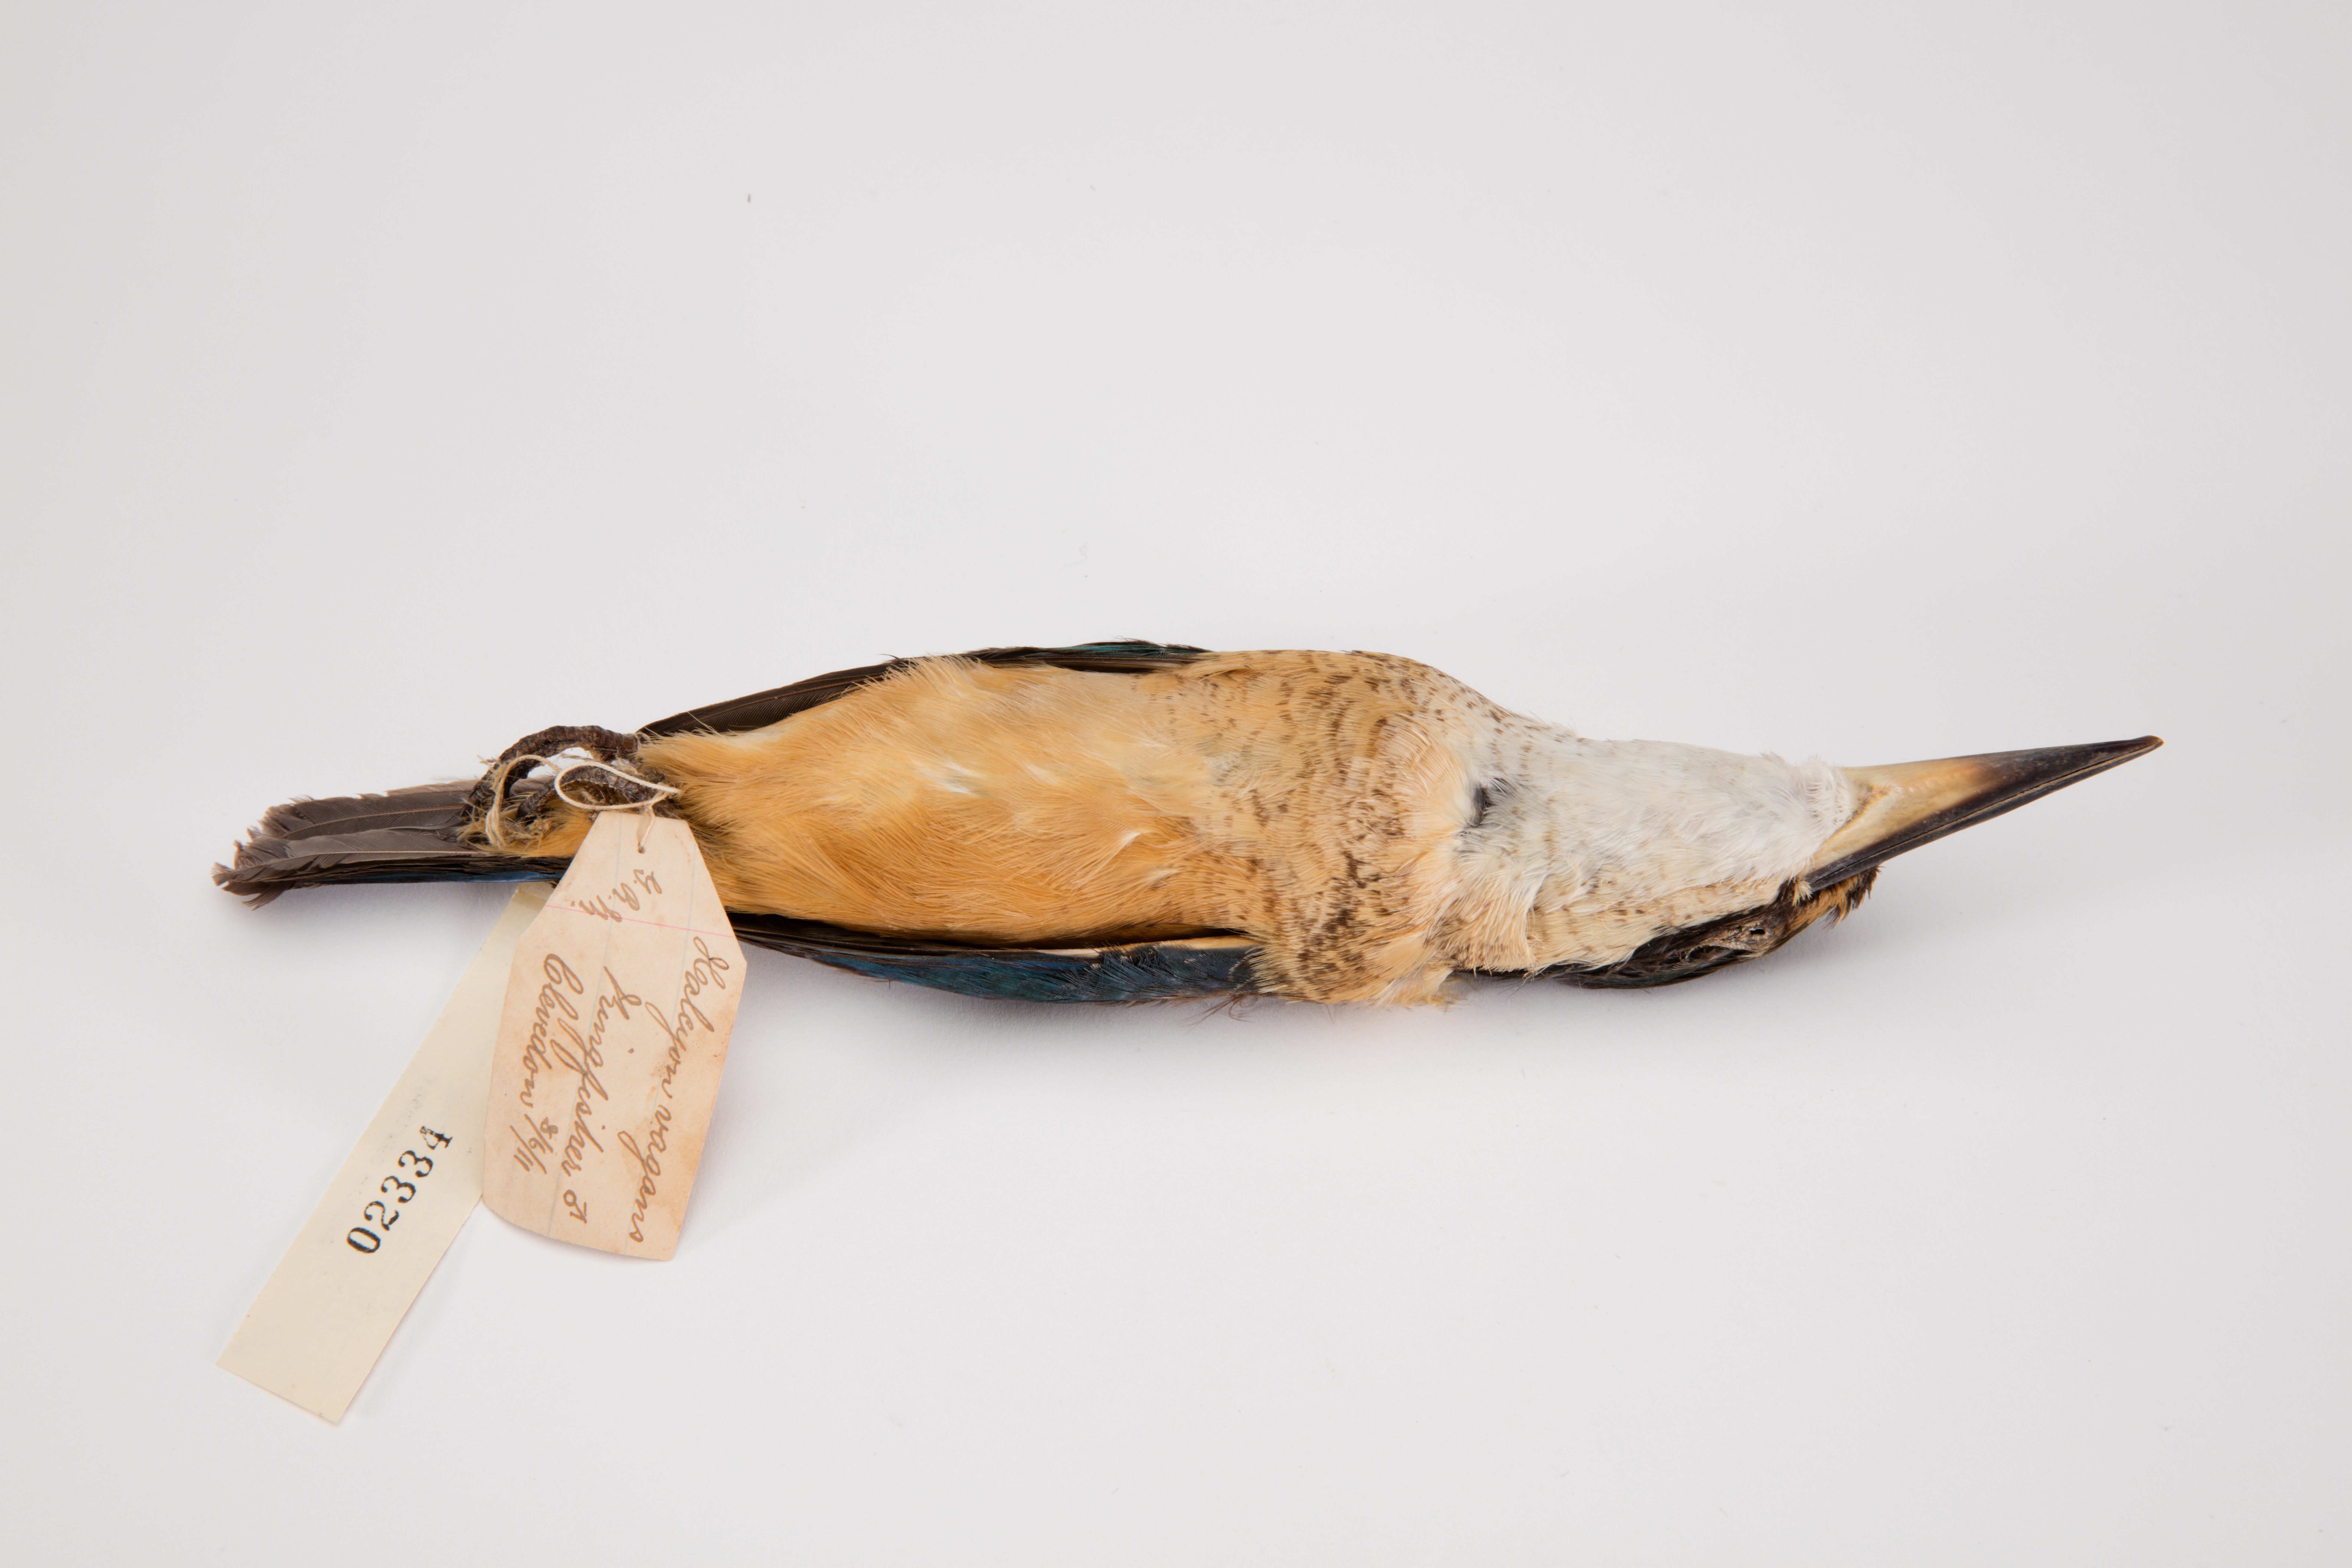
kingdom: Animalia
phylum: Chordata
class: Aves
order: Coraciiformes
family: Alcedinidae
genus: Todiramphus
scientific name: Todiramphus sanctus
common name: Sacred kingfisher
